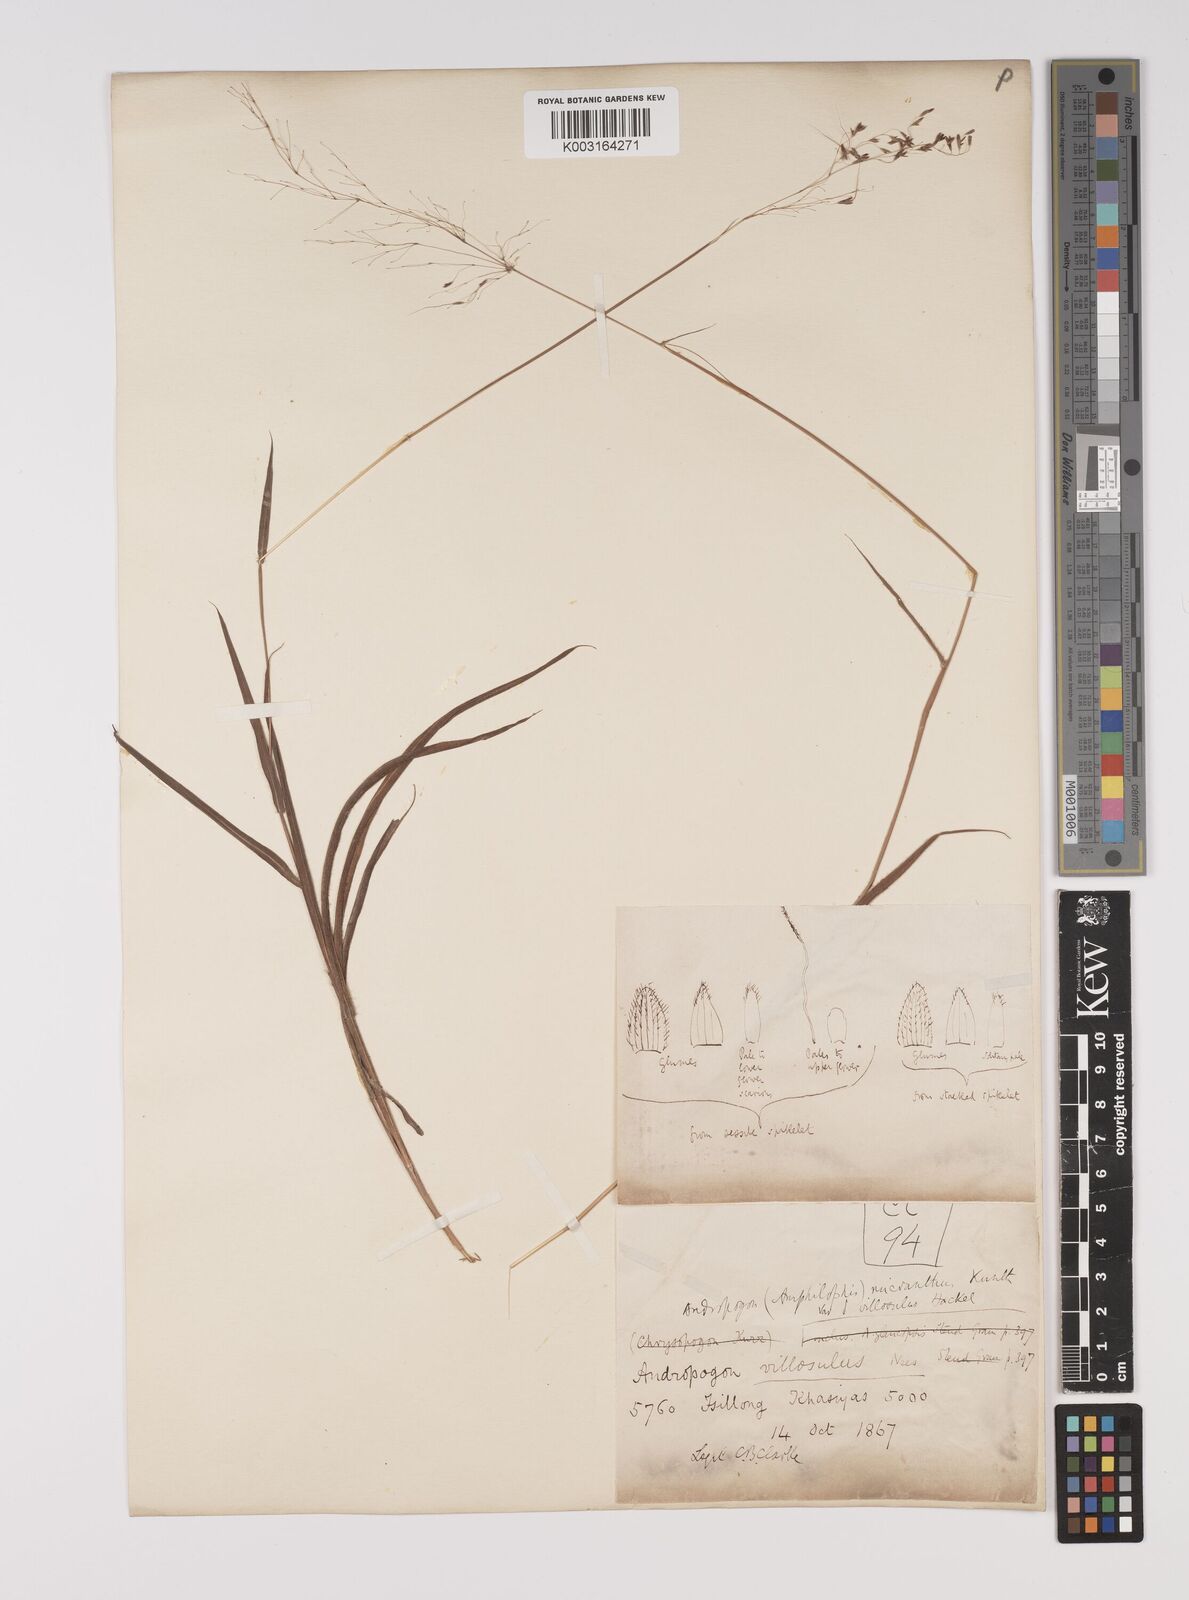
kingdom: Plantae
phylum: Tracheophyta
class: Liliopsida
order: Poales
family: Poaceae
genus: Capillipedium
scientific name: Capillipedium parviflorum
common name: Golden-beard
